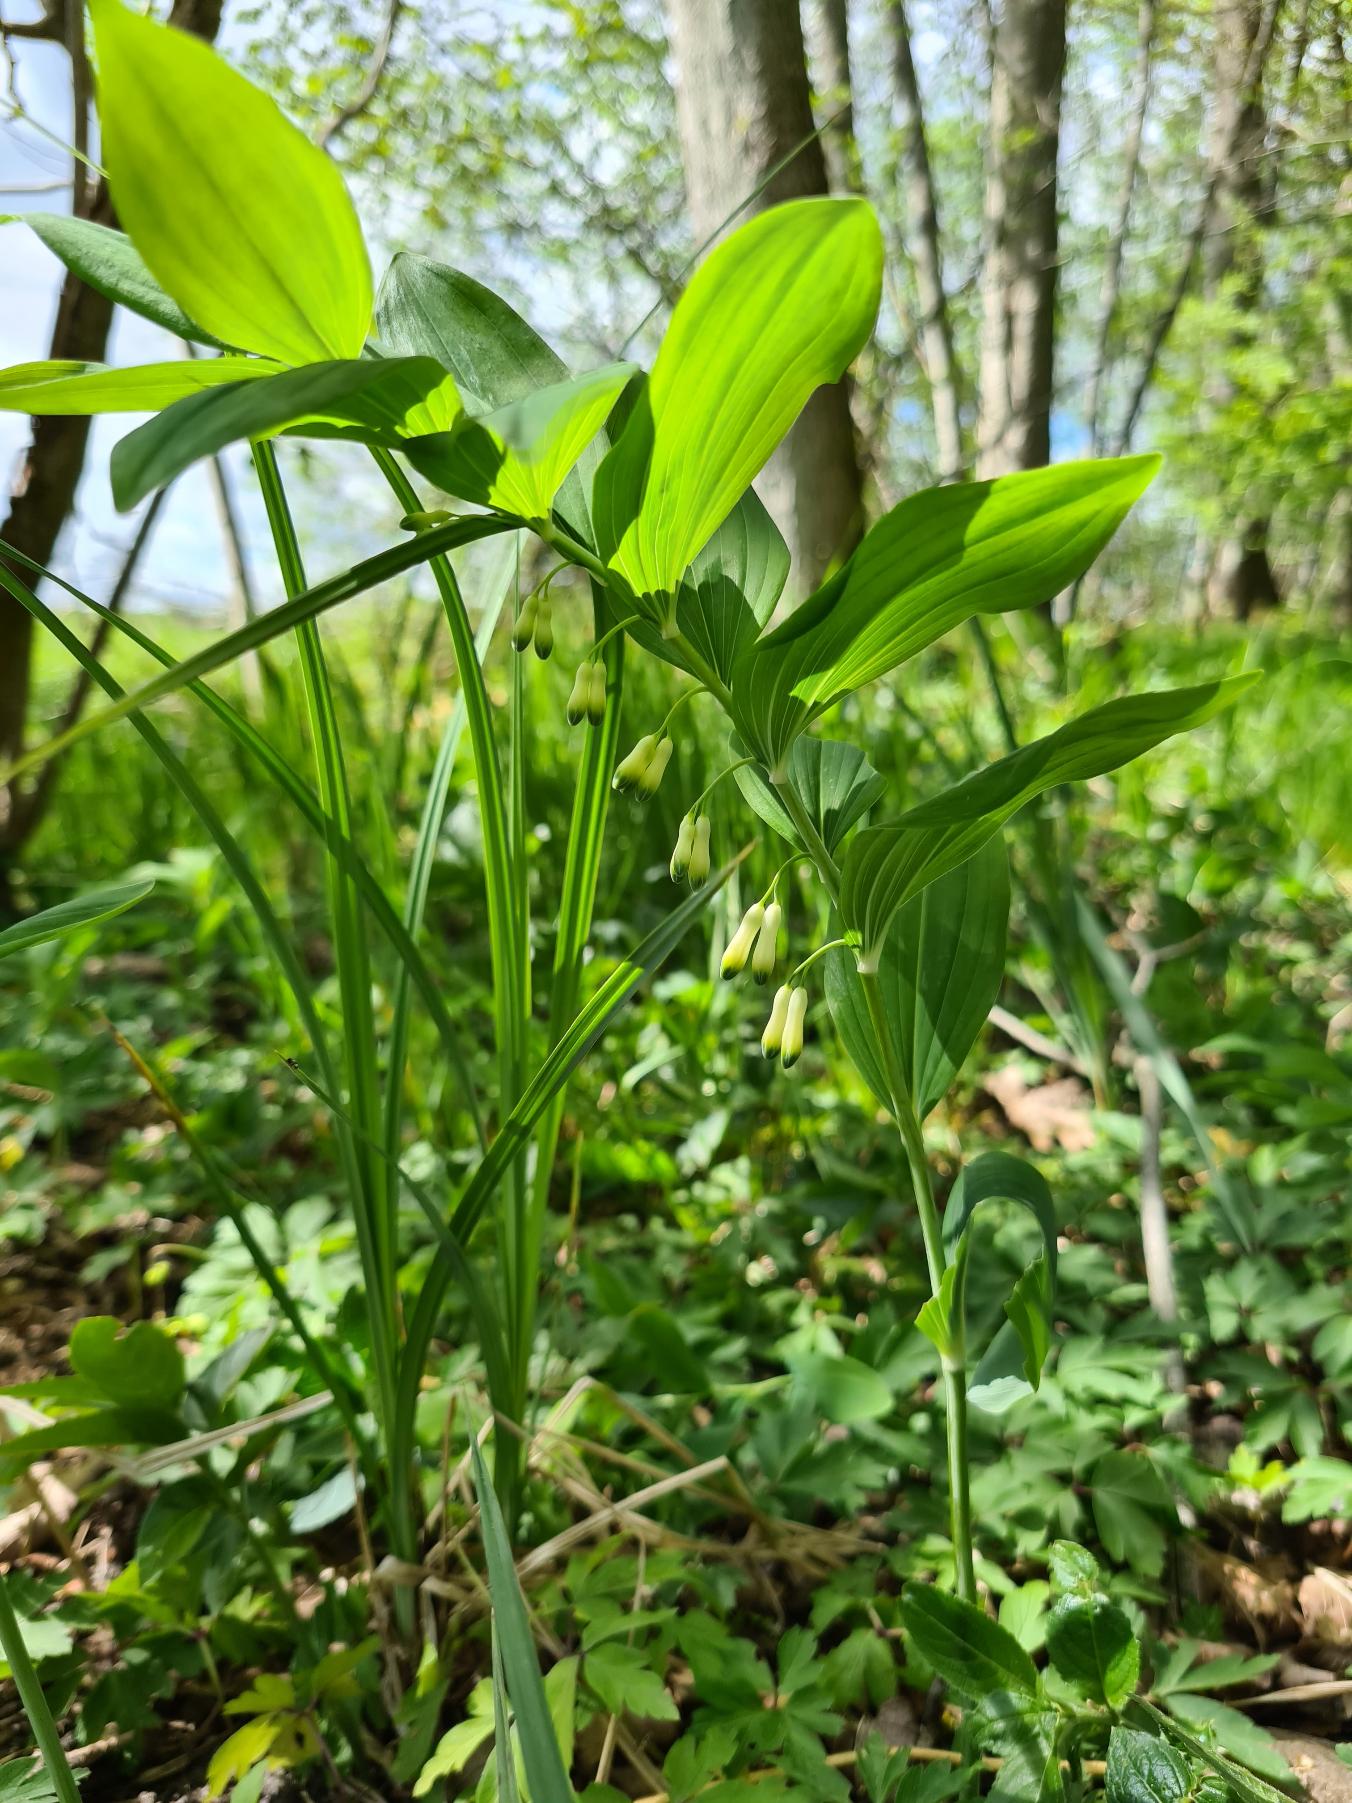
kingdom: Plantae
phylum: Tracheophyta
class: Liliopsida
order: Asparagales
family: Asparagaceae
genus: Polygonatum
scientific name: Polygonatum multiflorum
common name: Stor konval
